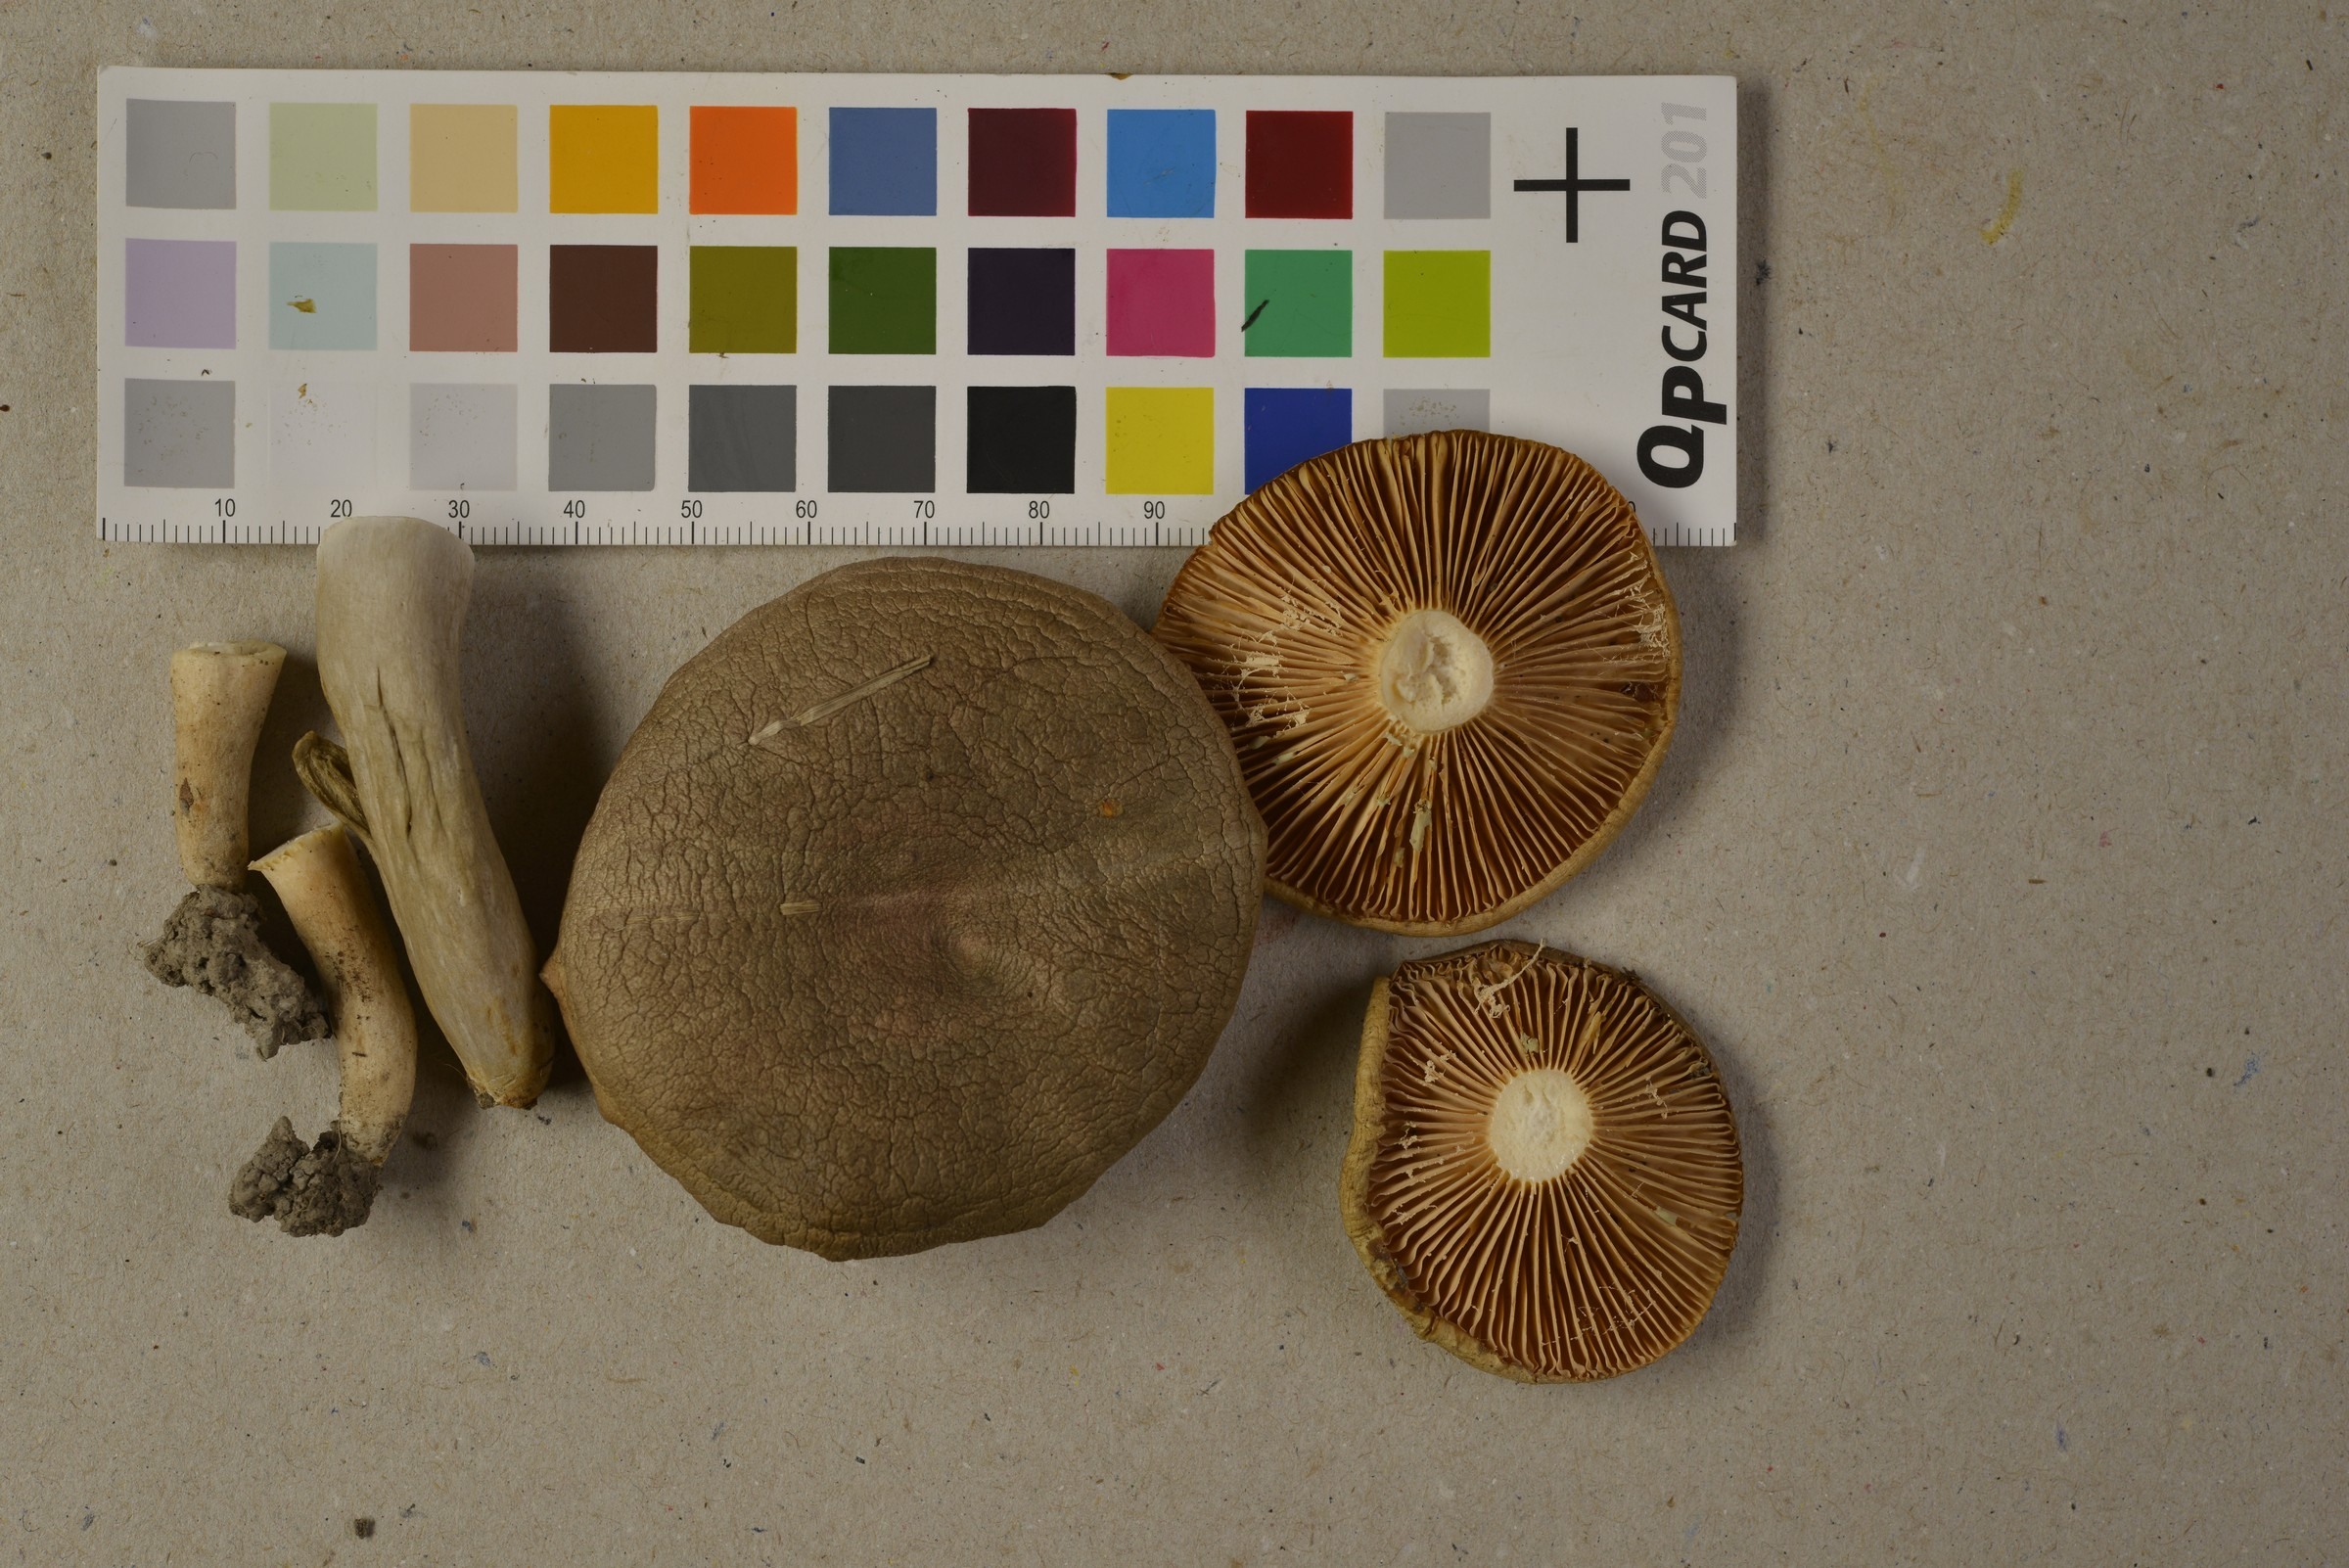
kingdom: Fungi
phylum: Basidiomycota
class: Agaricomycetes
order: Russulales
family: Russulaceae
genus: Lactarius
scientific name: Lactarius pyrogalus
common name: Fiery milkcap
